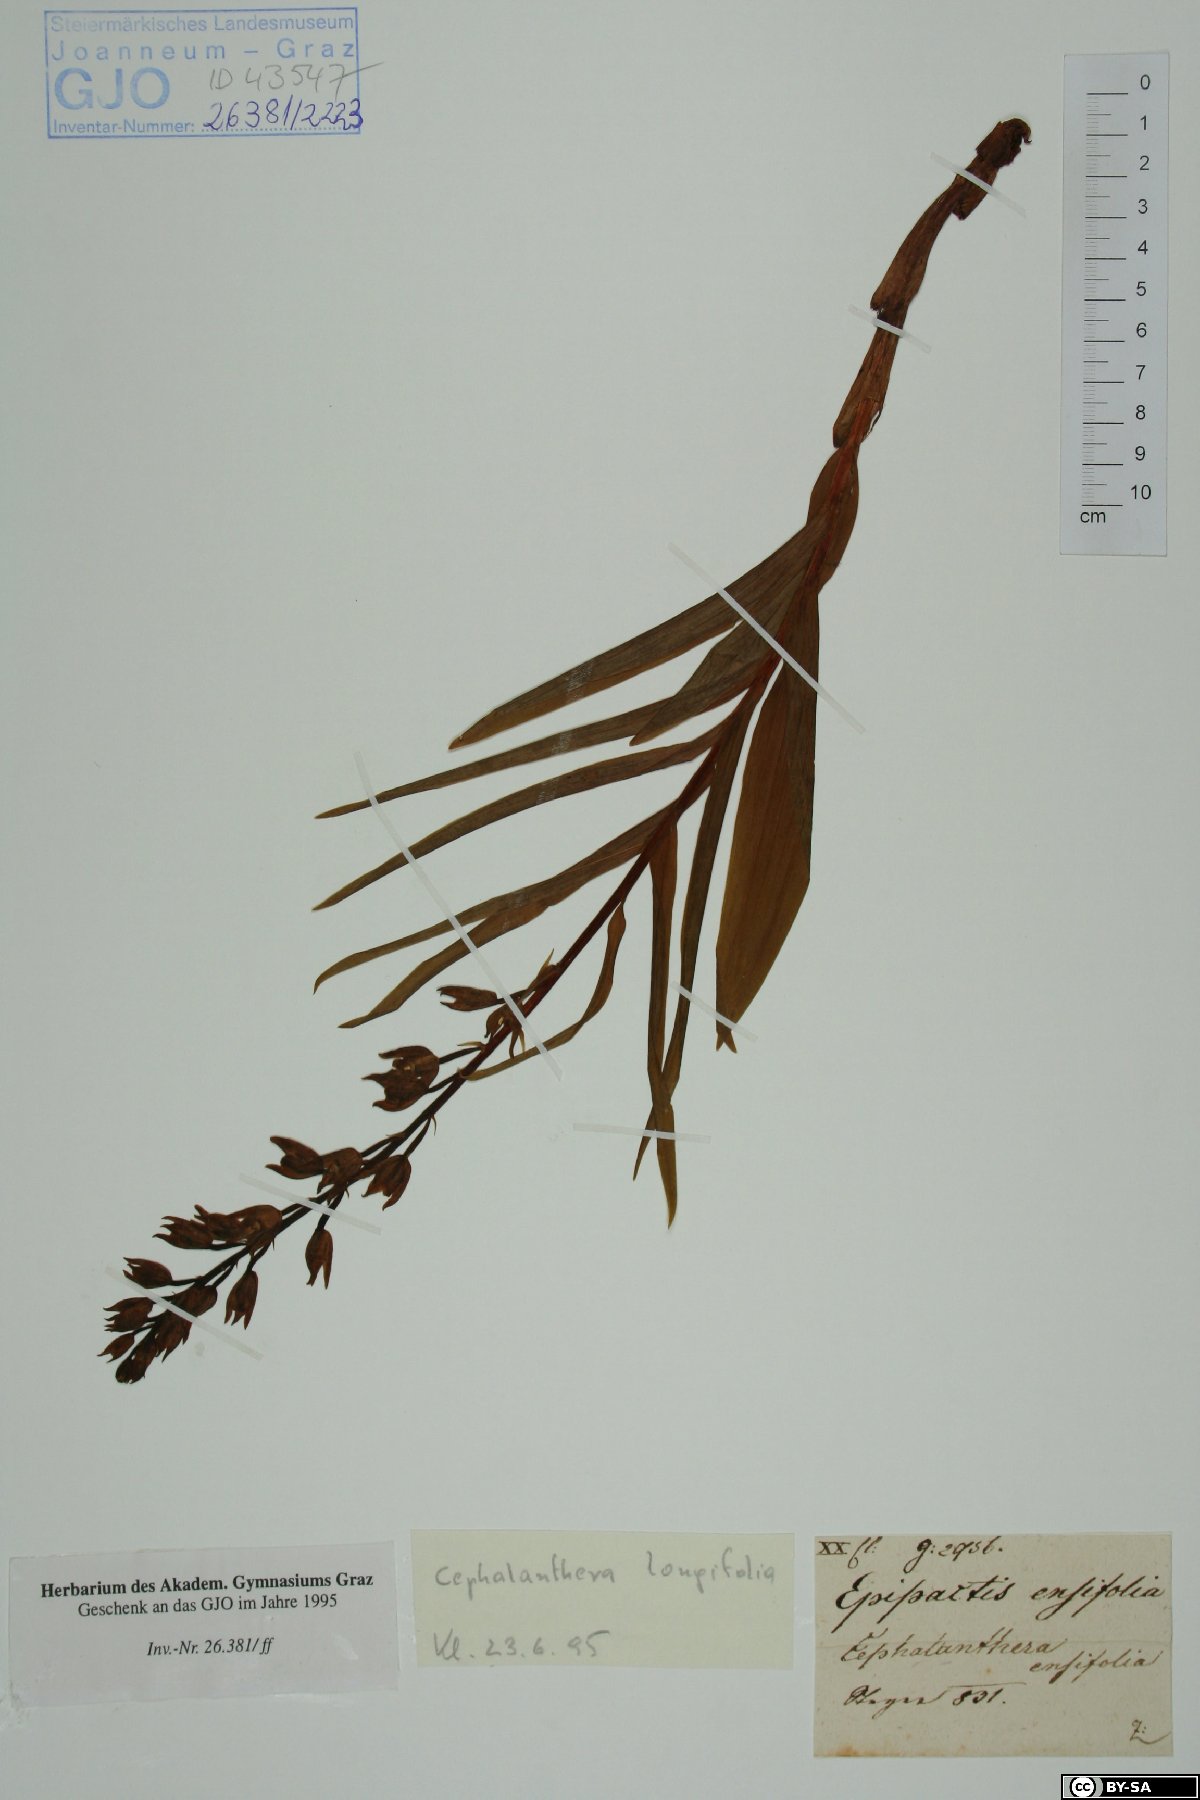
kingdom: Plantae
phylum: Tracheophyta
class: Liliopsida
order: Asparagales
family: Orchidaceae
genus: Cephalanthera
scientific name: Cephalanthera longifolia
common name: Narrow-leaved helleborine
